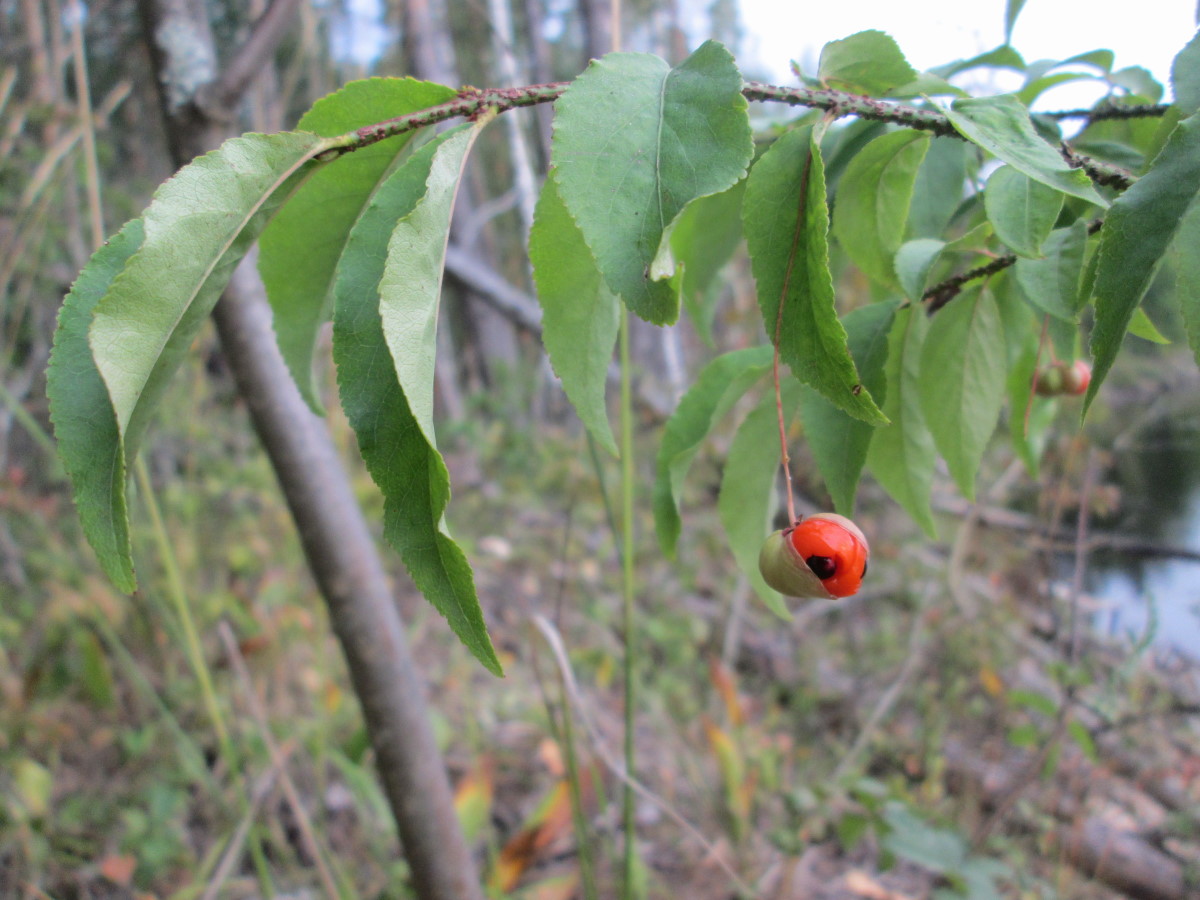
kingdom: Plantae
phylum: Tracheophyta
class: Magnoliopsida
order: Celastrales
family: Celastraceae
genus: Euonymus
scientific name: Euonymus verrucosus
